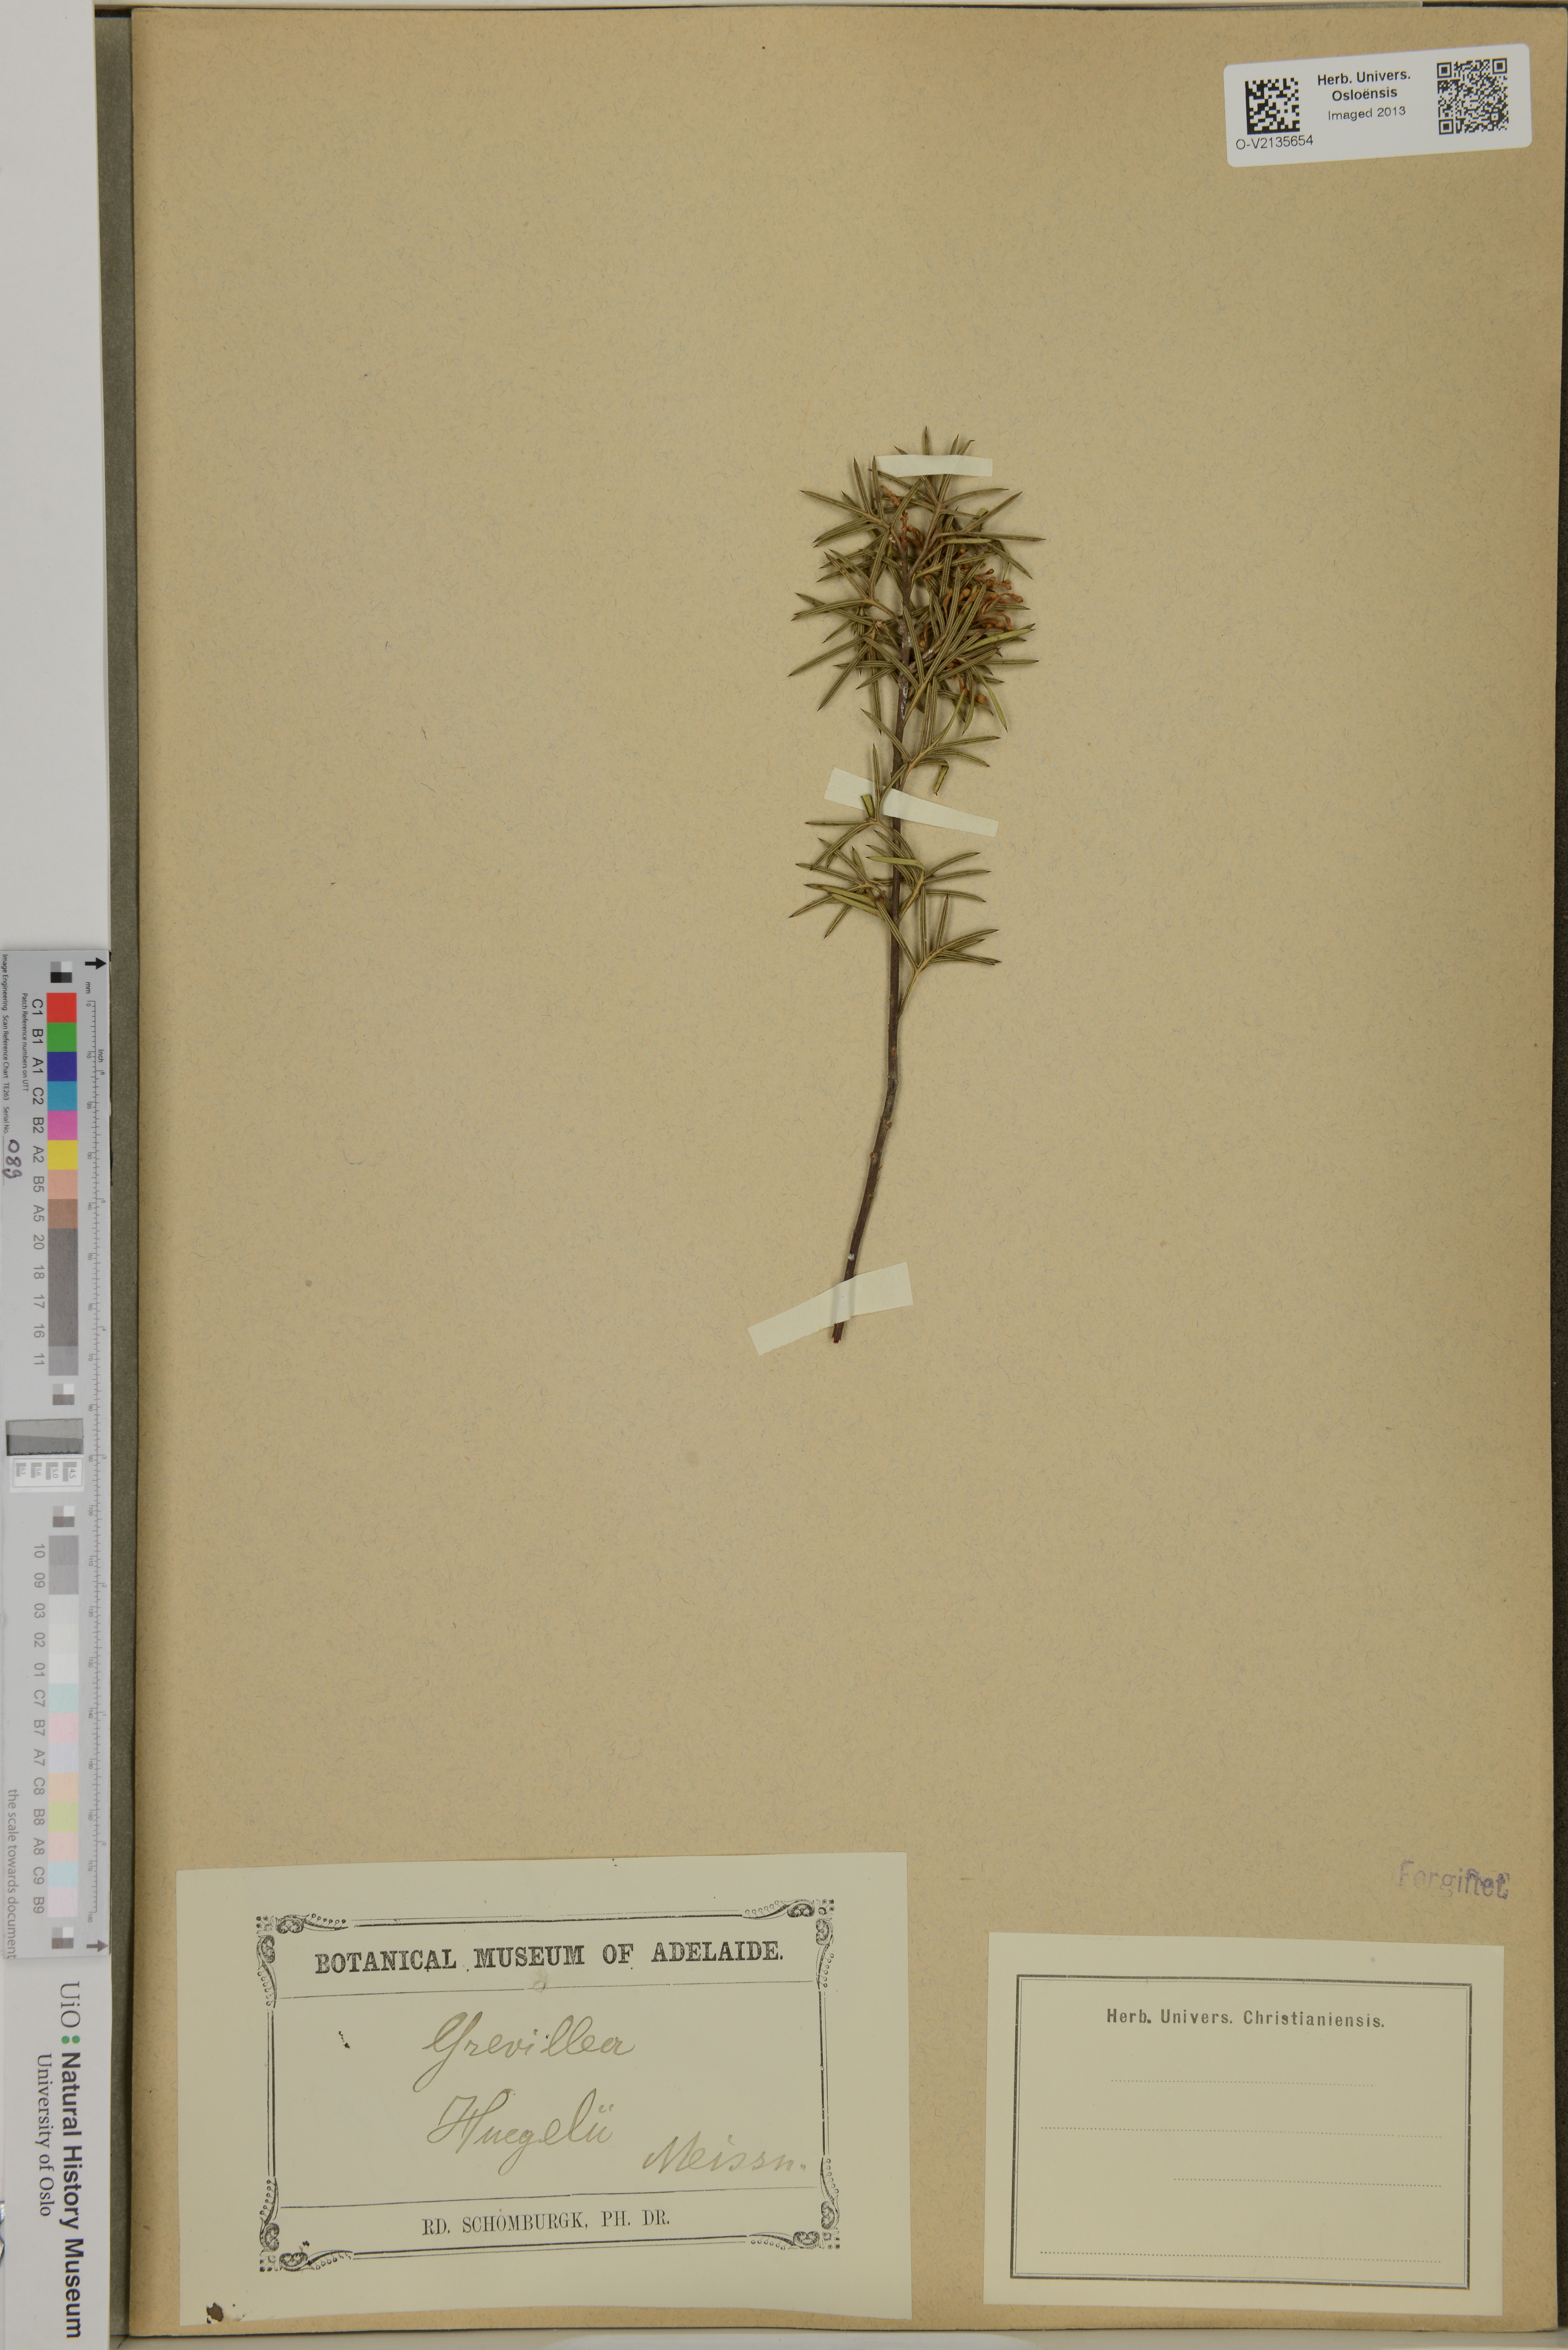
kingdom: Plantae
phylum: Tracheophyta
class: Magnoliopsida
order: Proteales
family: Proteaceae
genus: Grevillea
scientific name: Grevillea huegelii
